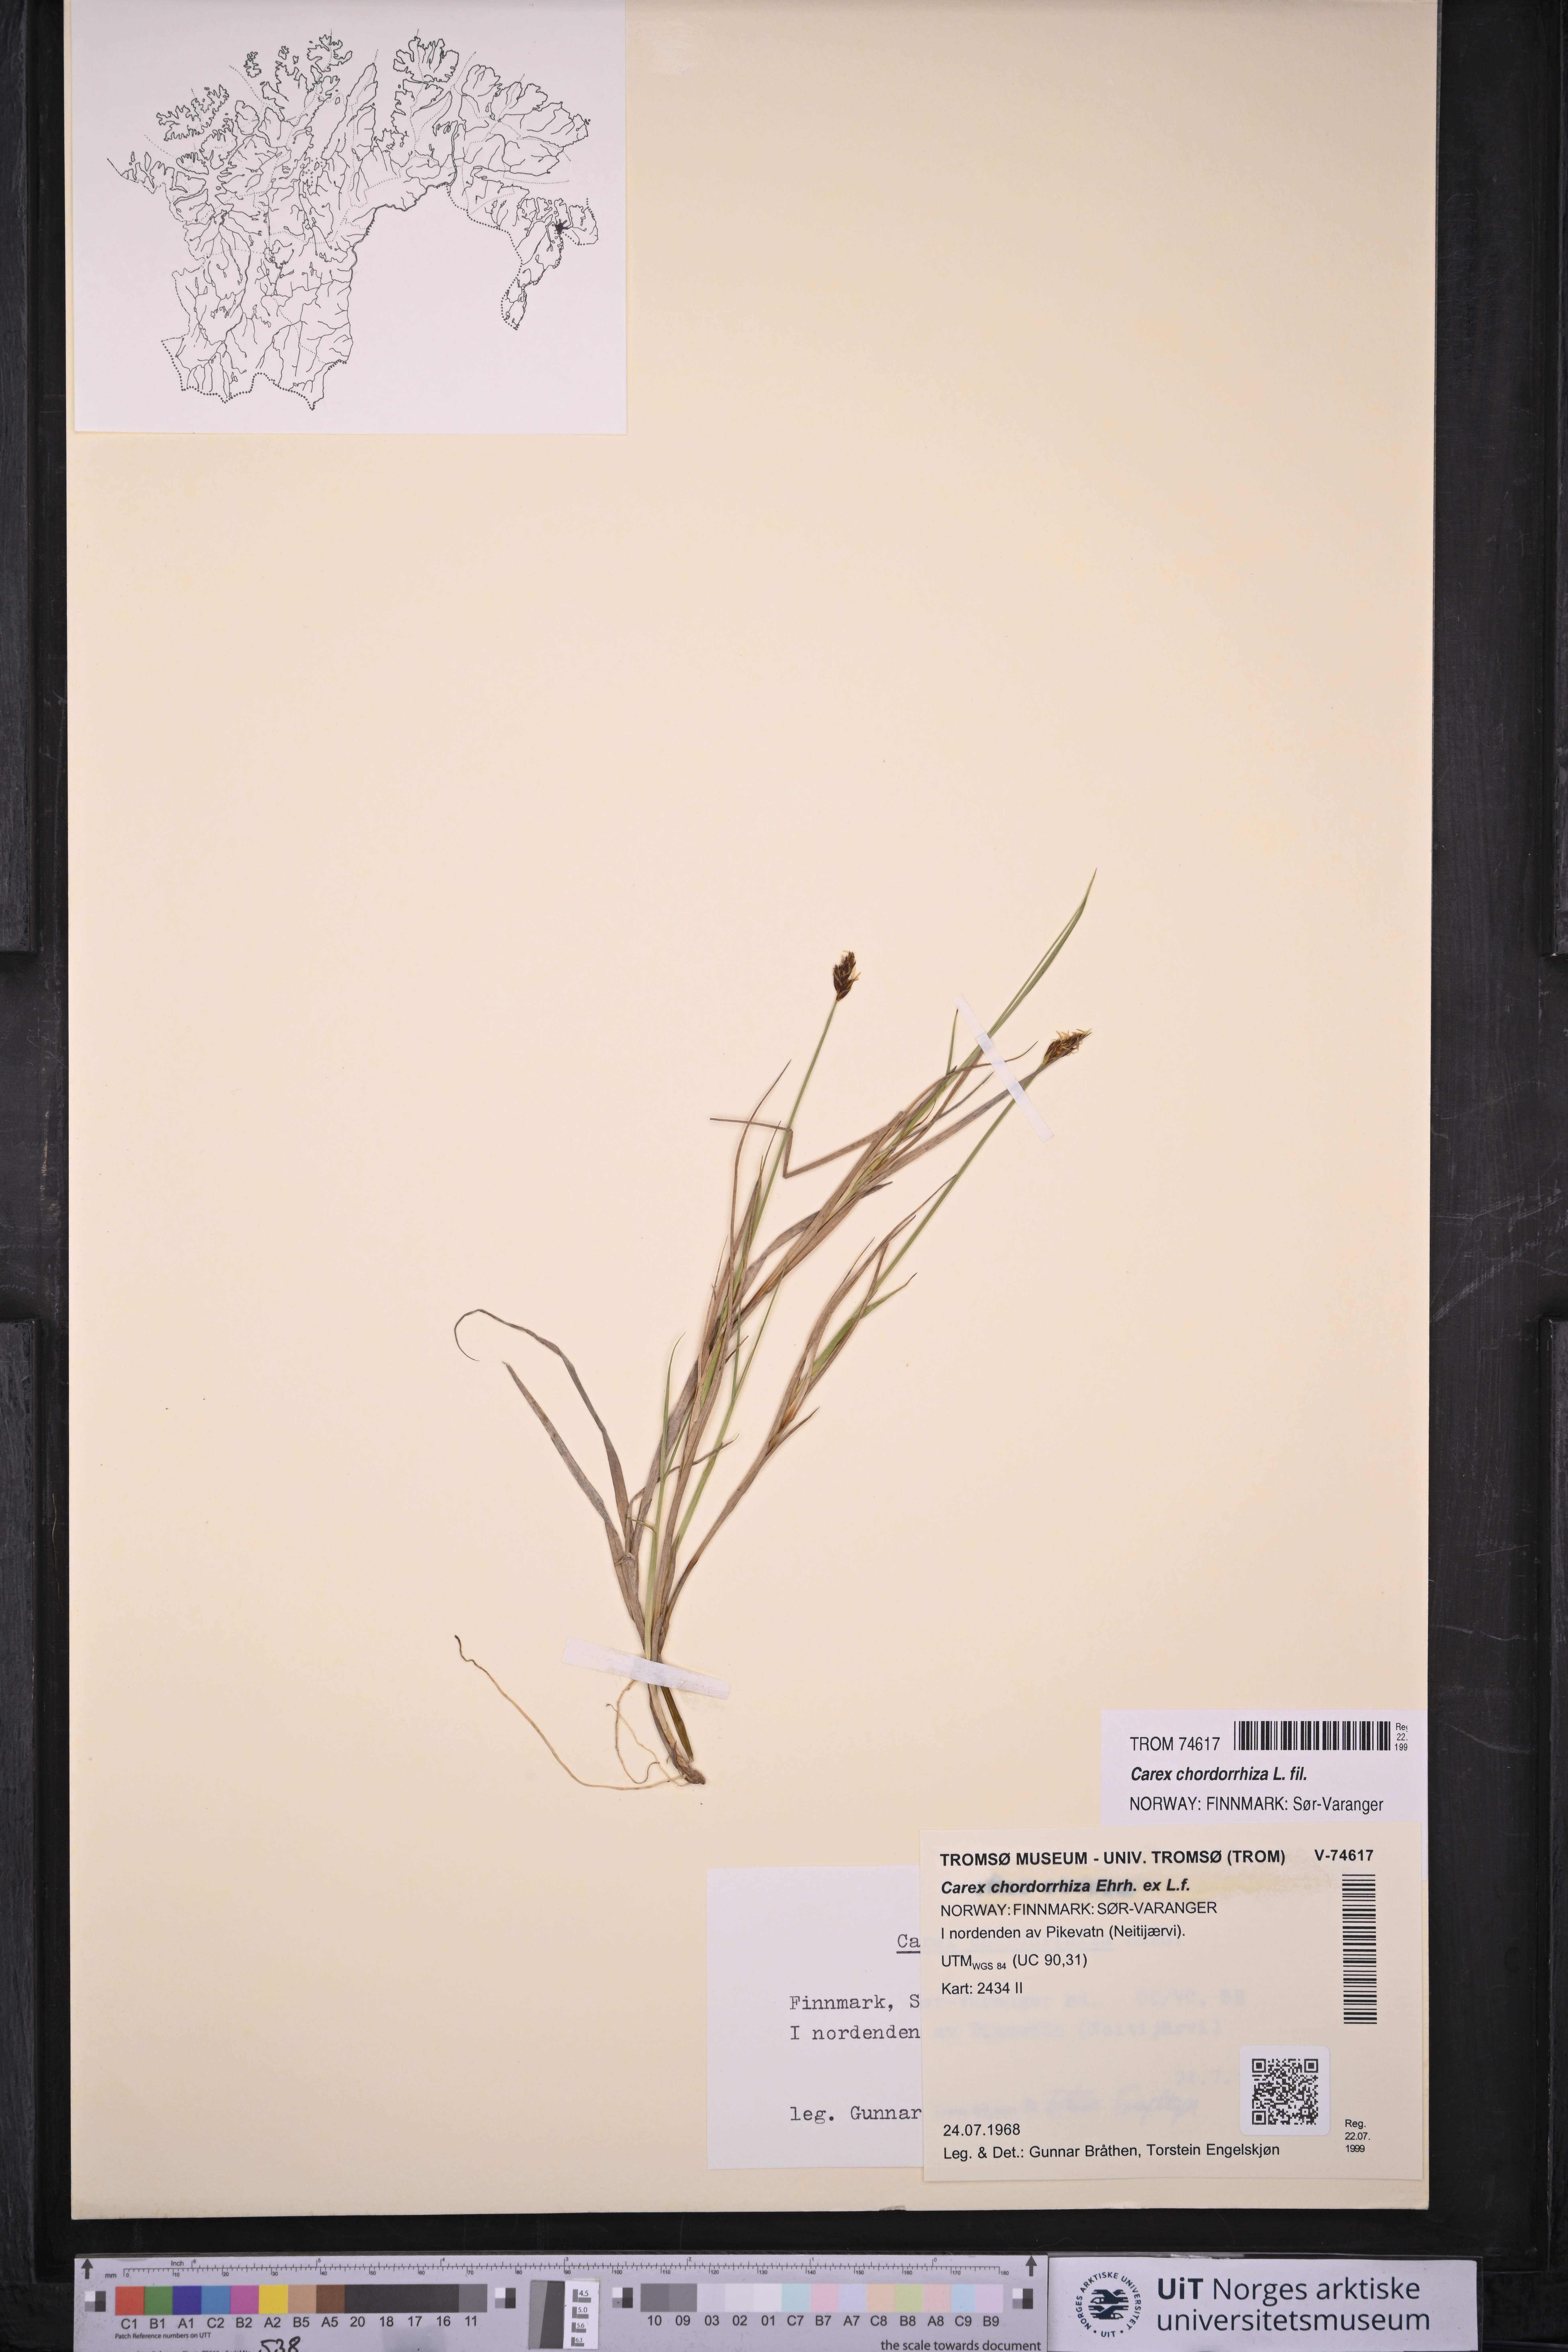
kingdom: Plantae
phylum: Tracheophyta
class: Liliopsida
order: Poales
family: Cyperaceae
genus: Carex
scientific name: Carex chordorrhiza
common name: String sedge
